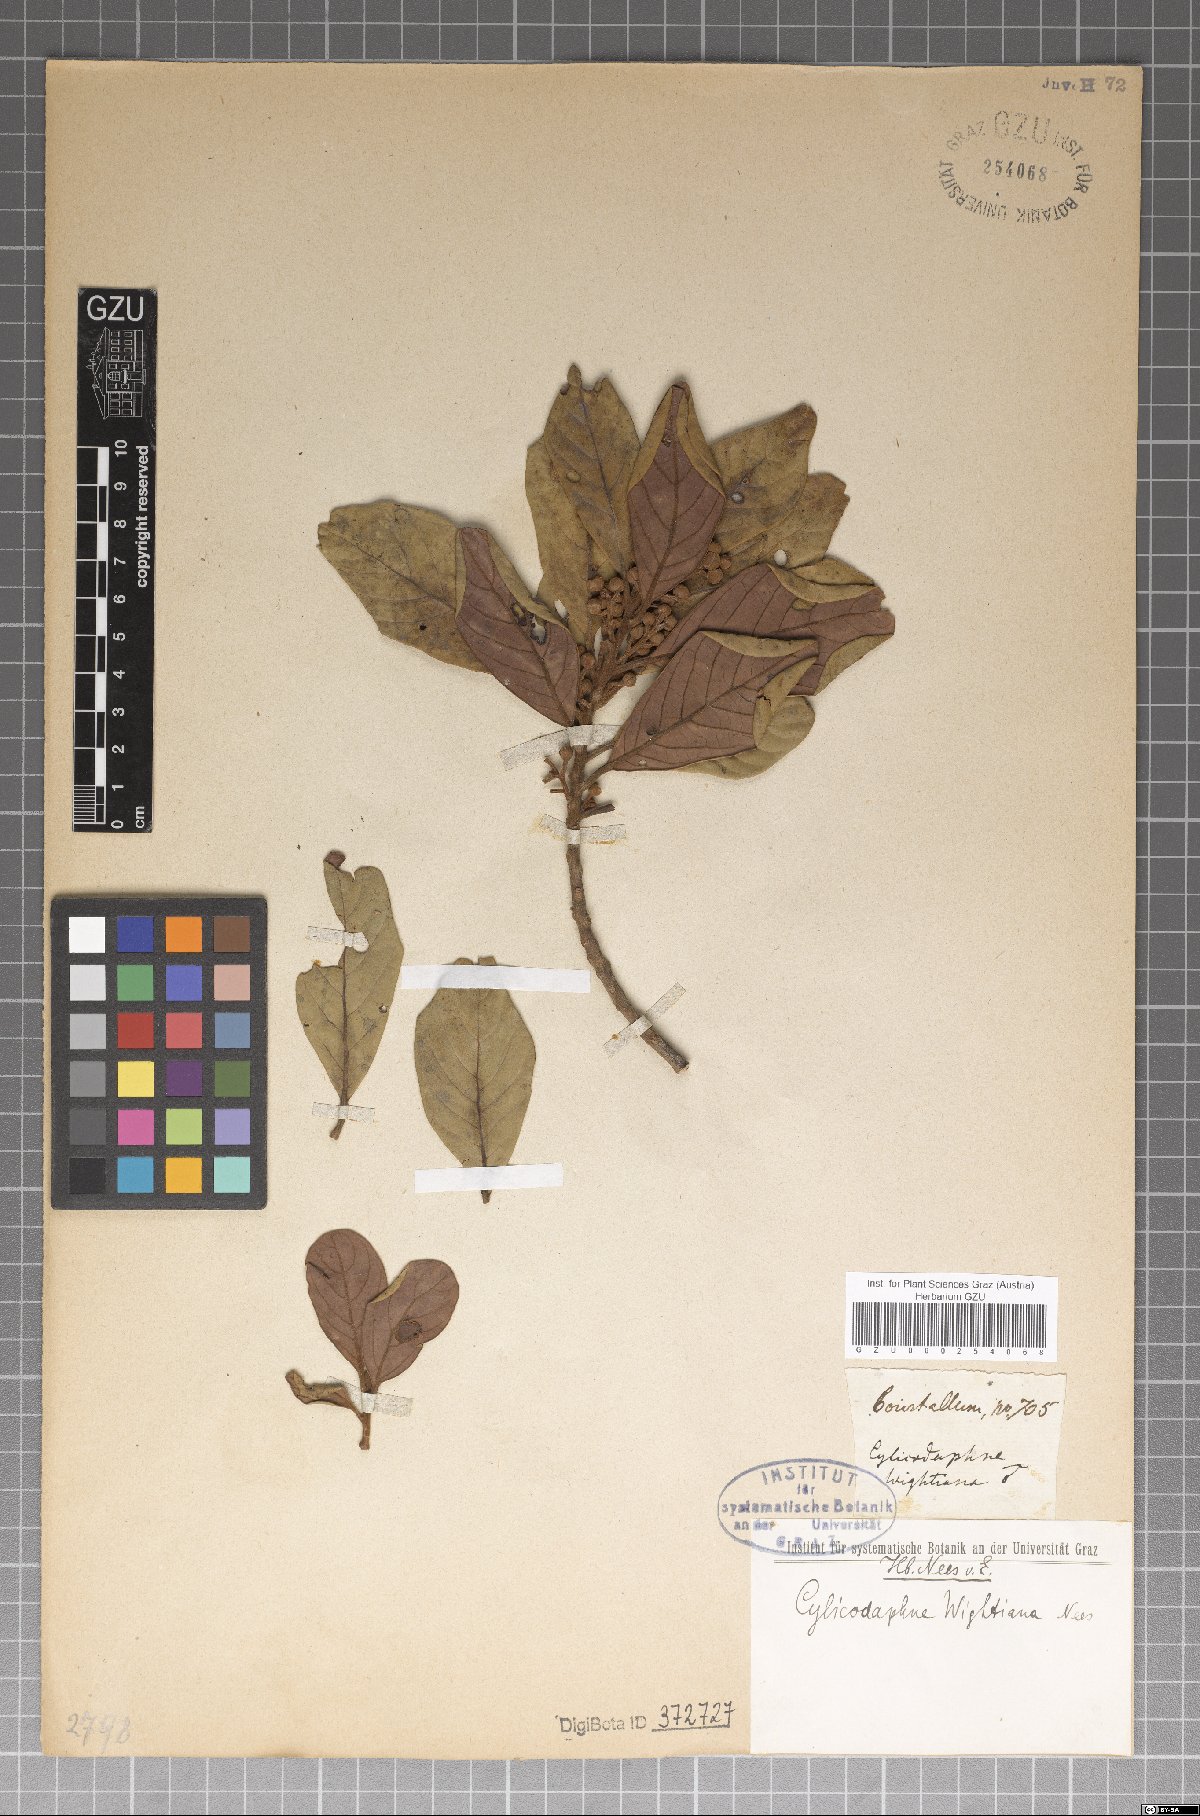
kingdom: Plantae
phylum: Tracheophyta
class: Magnoliopsida
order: Laurales
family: Lauraceae
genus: Litsea
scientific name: Litsea wightiana
